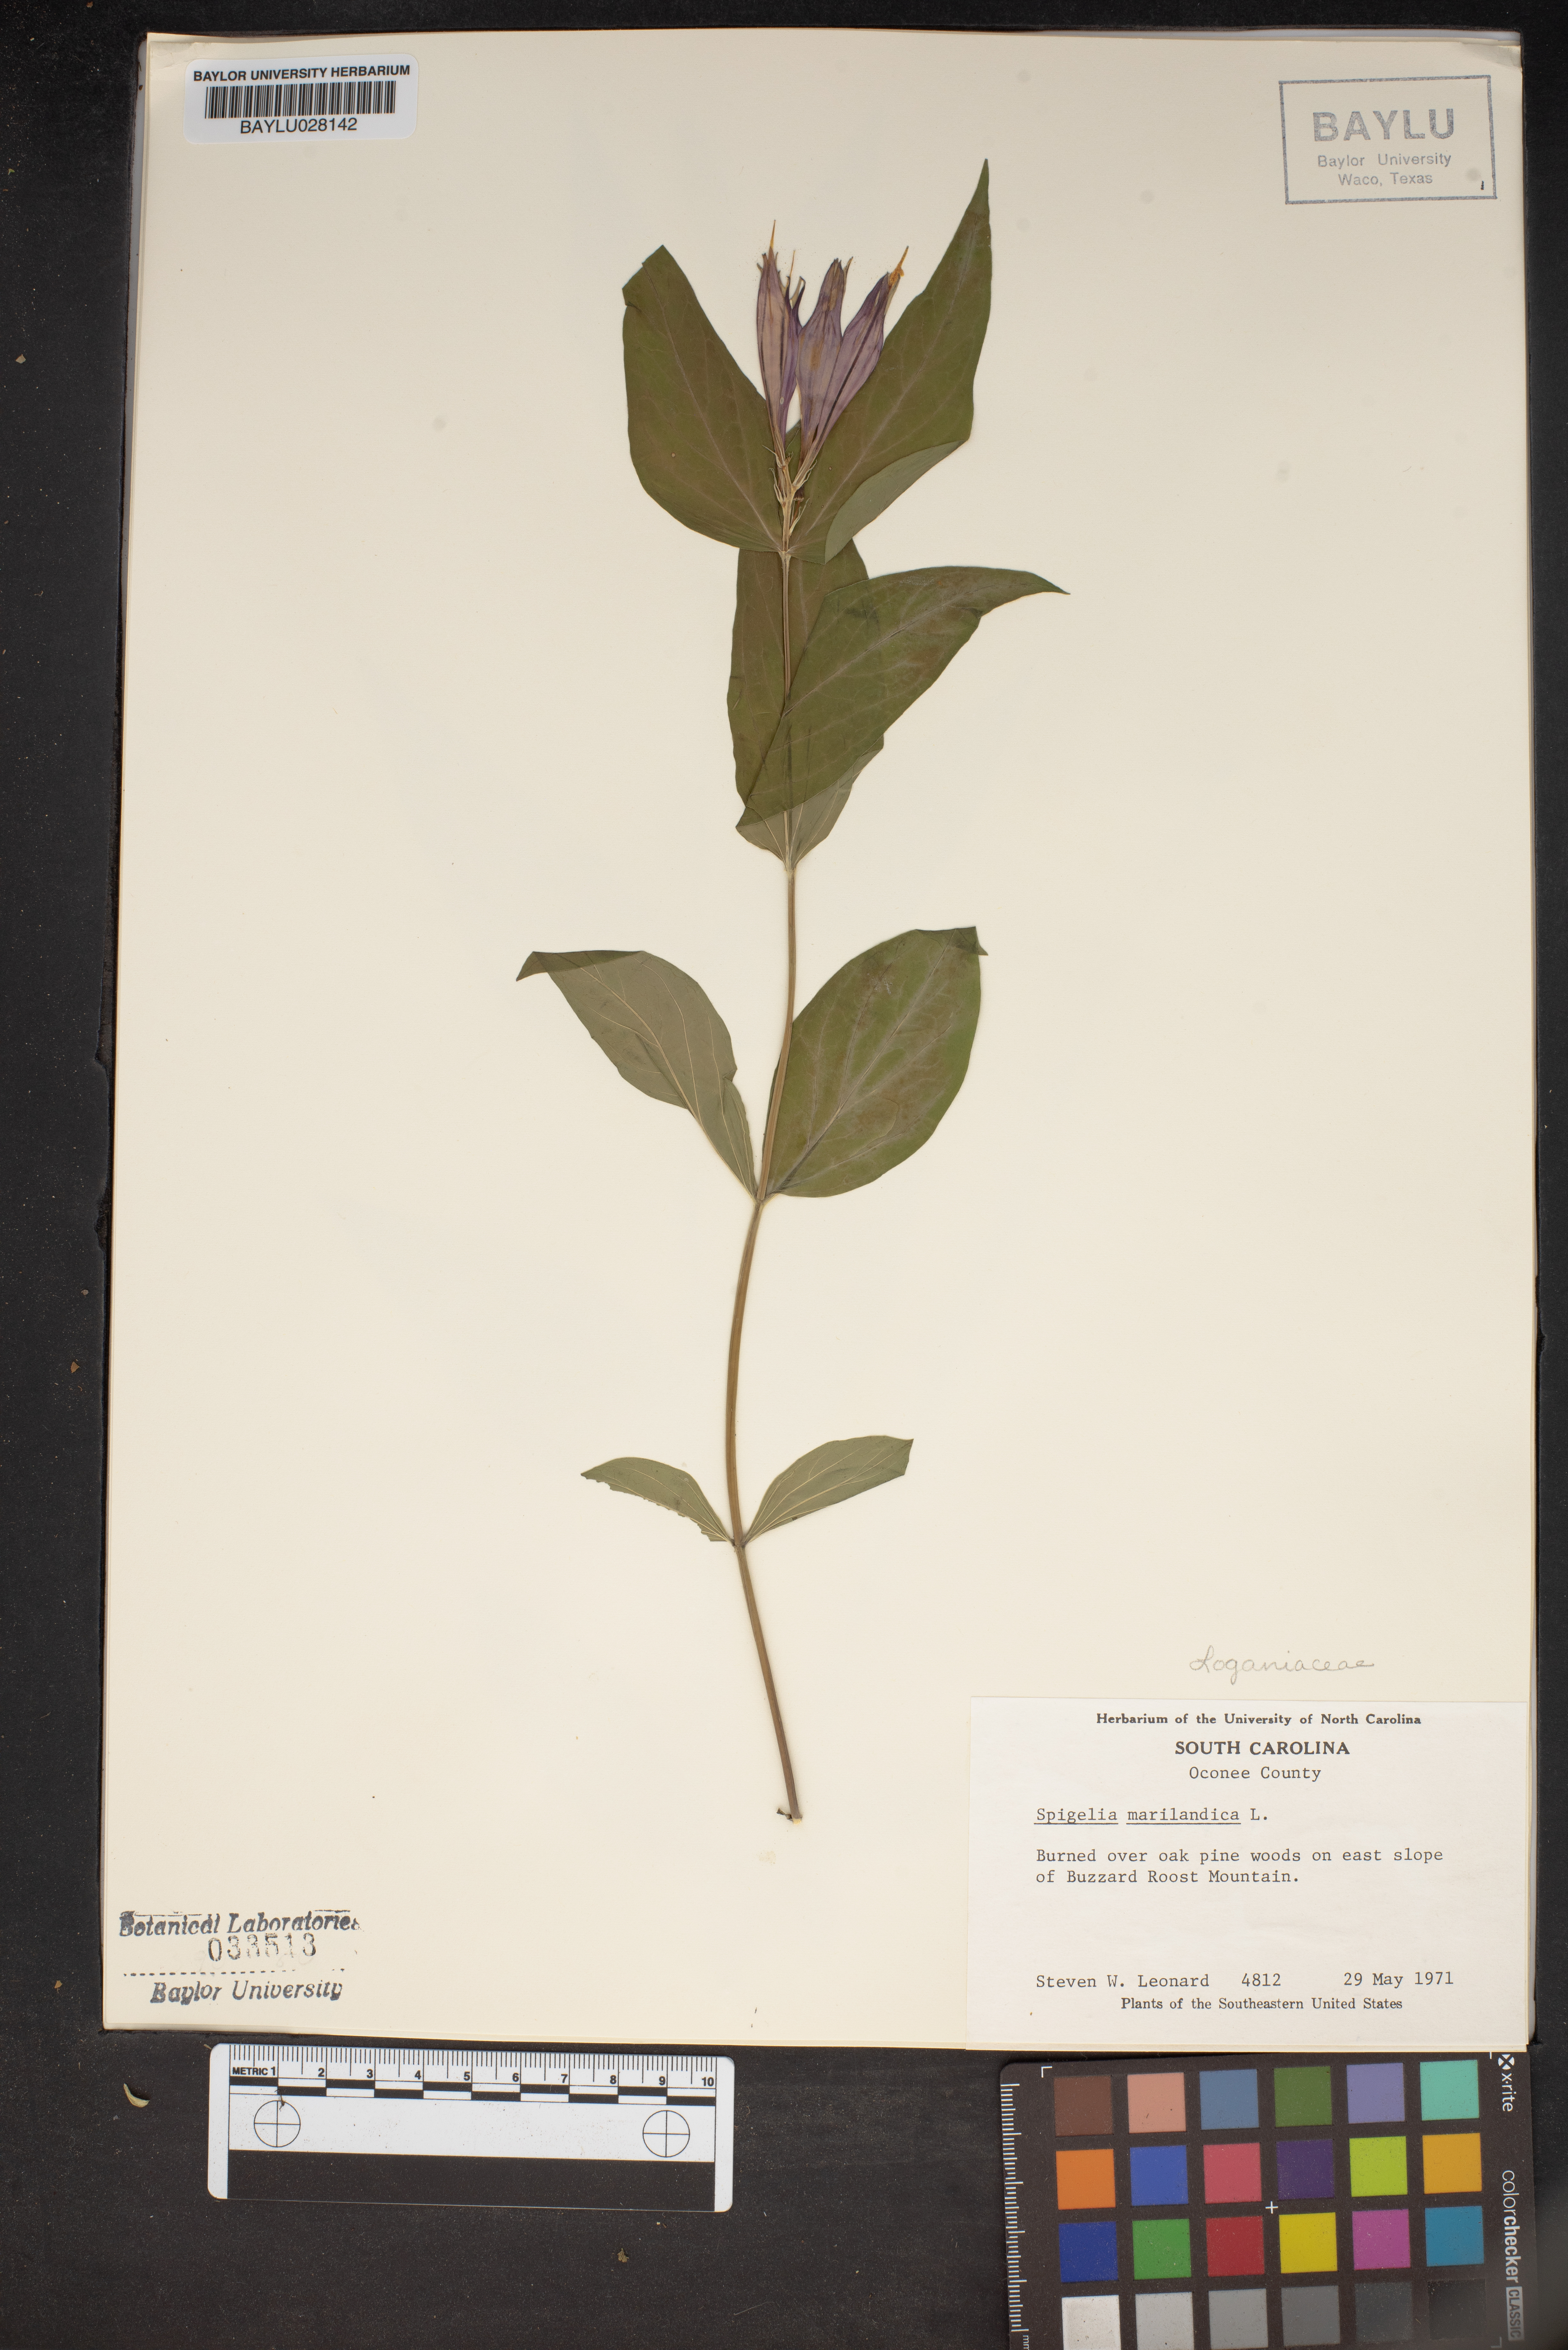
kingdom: Plantae
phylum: Tracheophyta
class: Magnoliopsida
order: Gentianales
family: Loganiaceae
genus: Spigelia
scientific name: Spigelia marilandica
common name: Indian-pink
